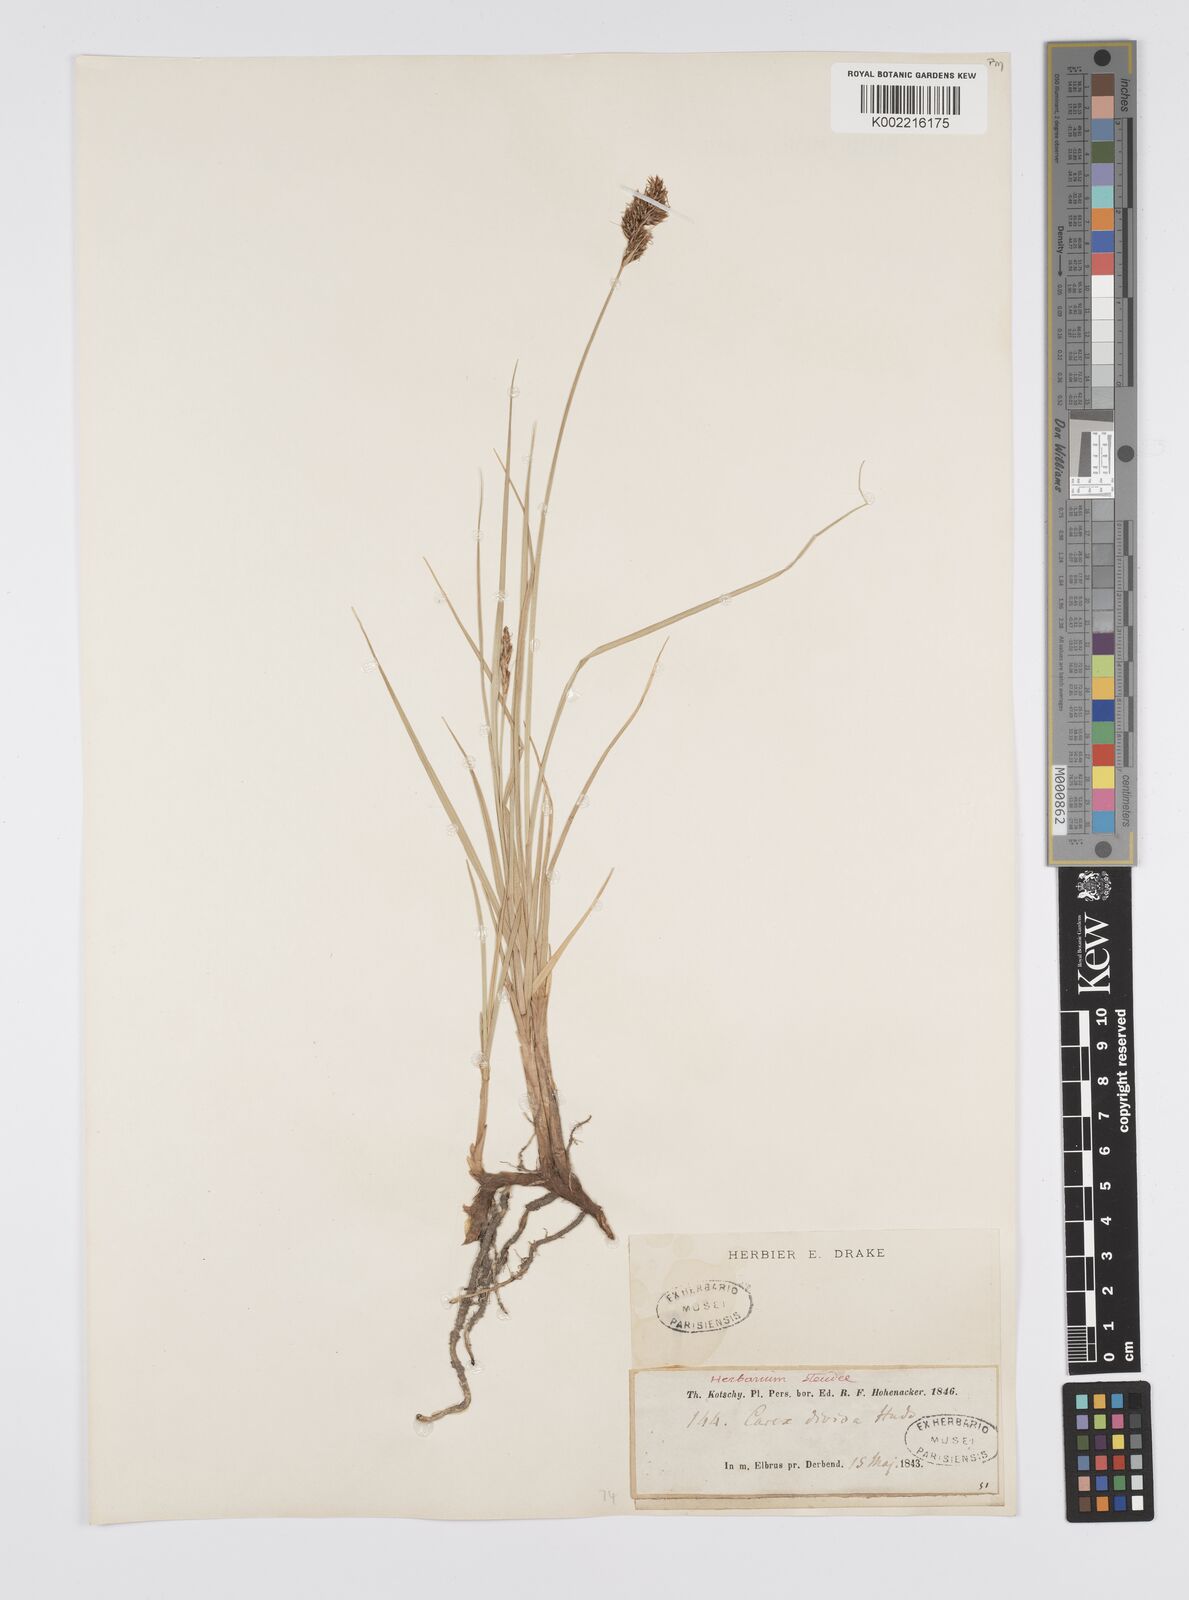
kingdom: Plantae
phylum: Tracheophyta
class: Liliopsida
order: Poales
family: Cyperaceae
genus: Carex
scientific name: Carex divisa
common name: Divided sedge
